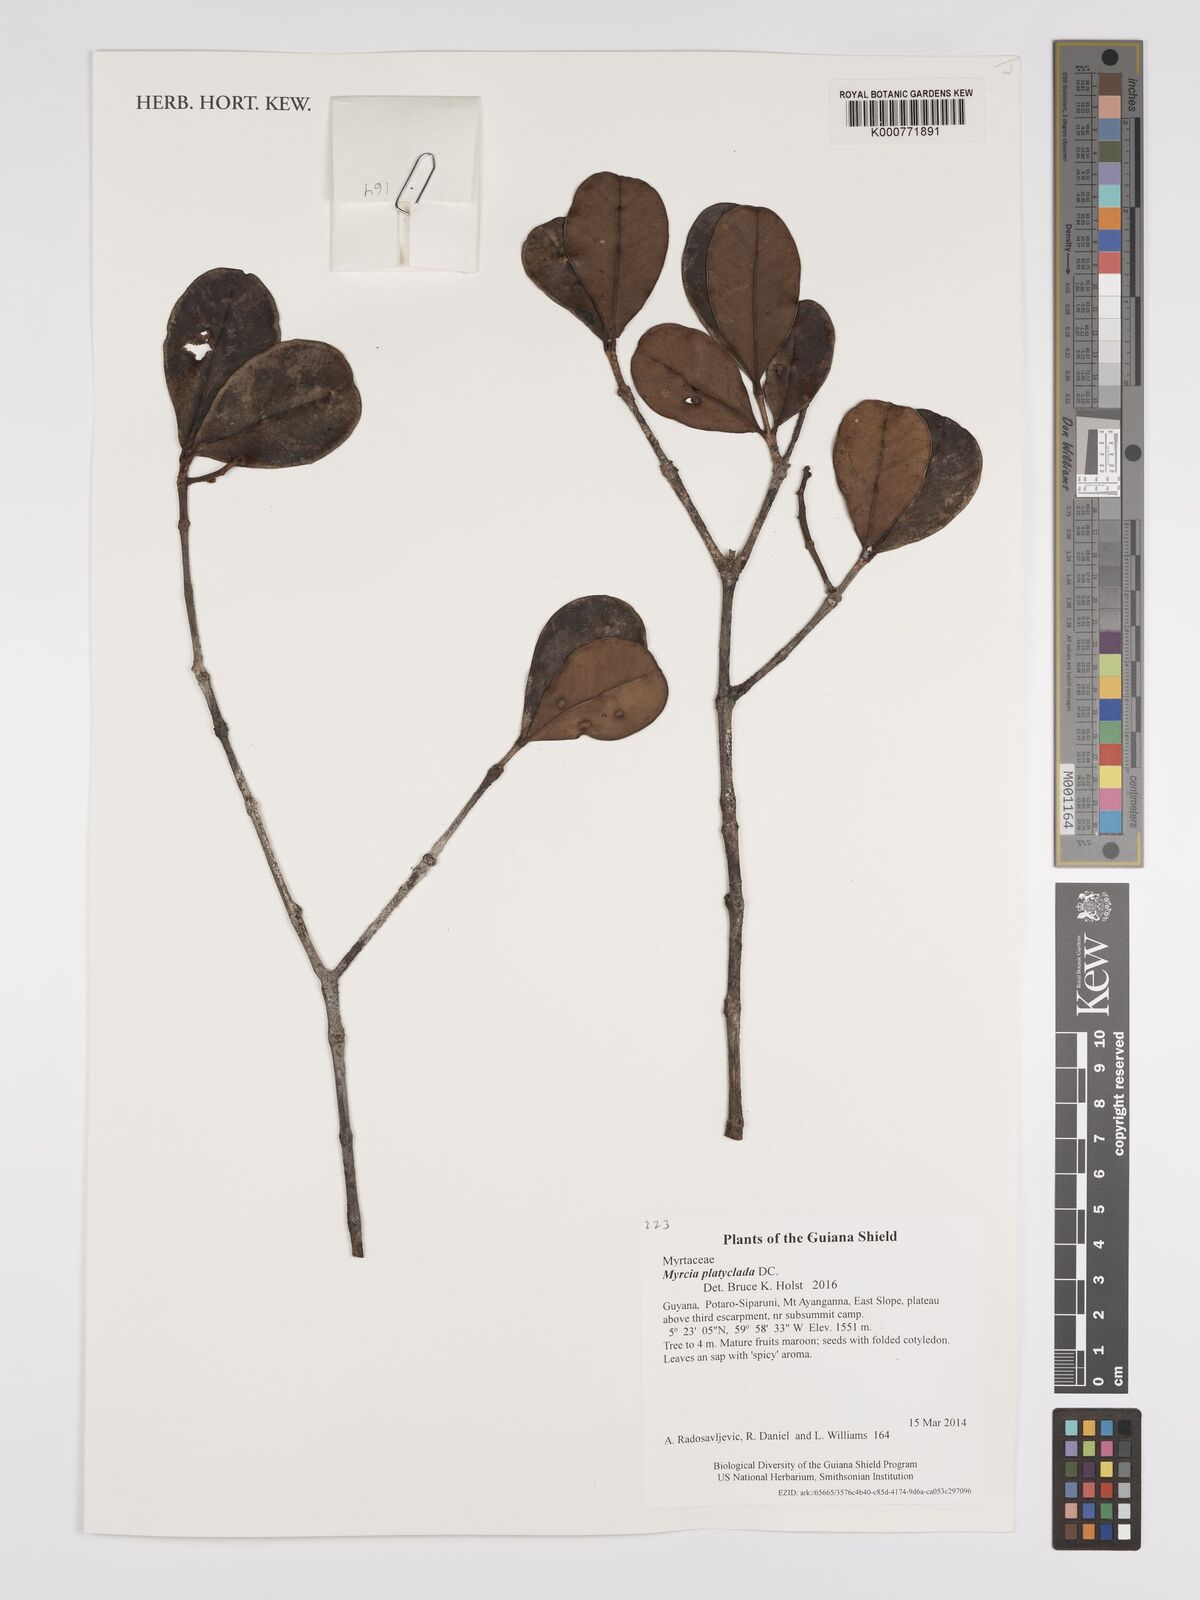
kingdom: Plantae
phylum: Tracheophyta
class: Magnoliopsida
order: Myrtales
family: Myrtaceae
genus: Myrcia
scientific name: Myrcia platyclada
